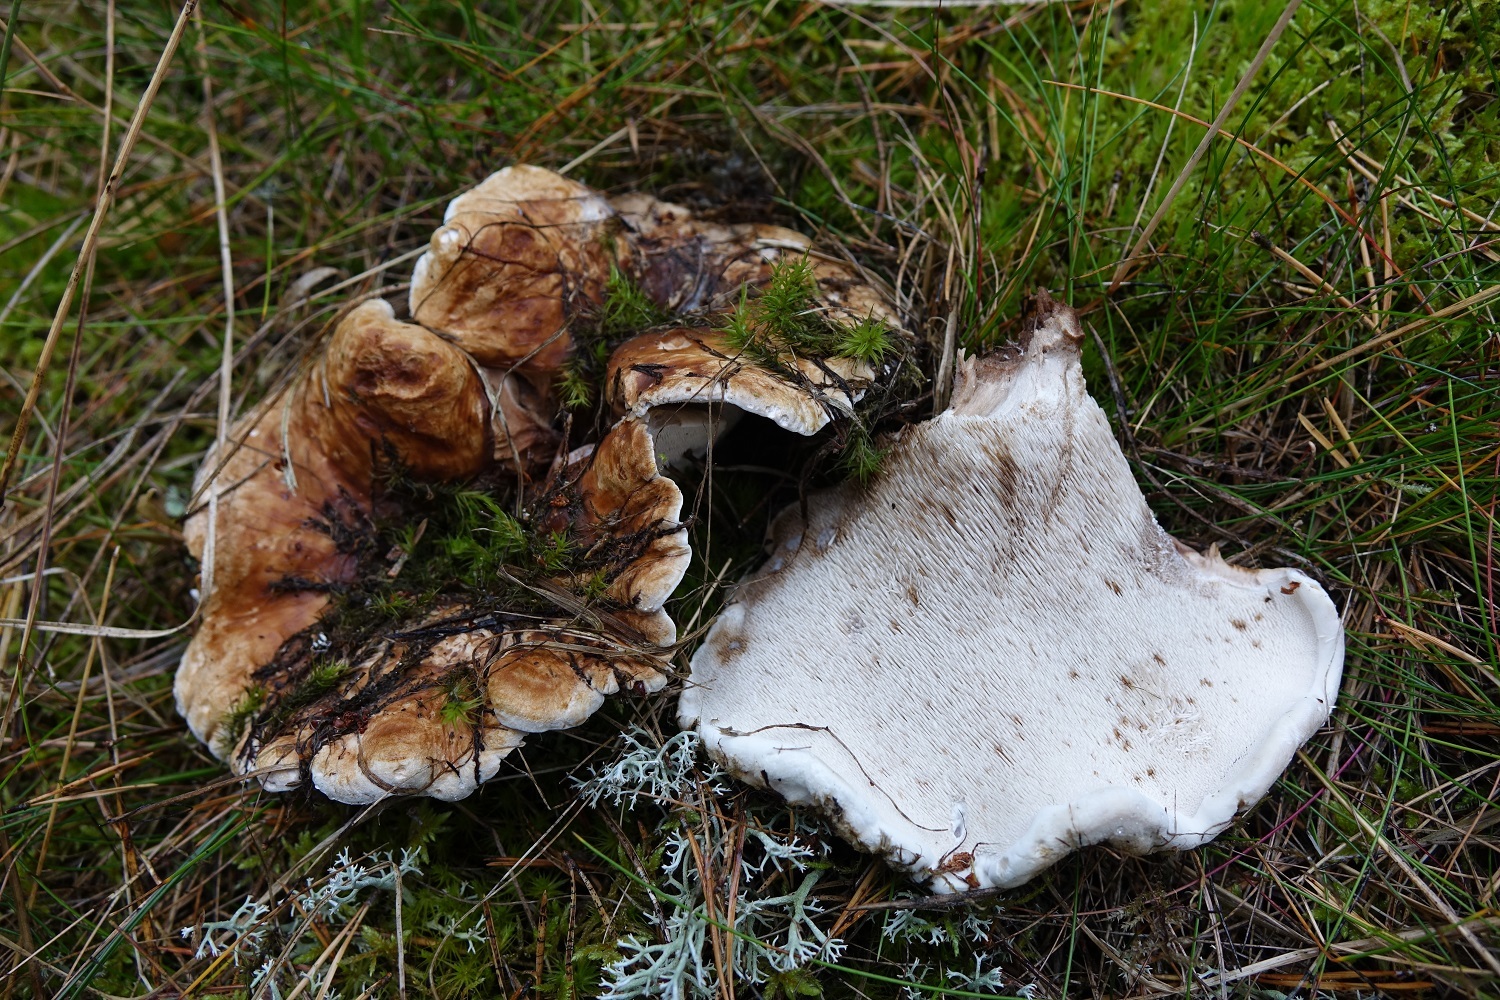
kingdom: Fungi
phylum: Basidiomycota
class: Agaricomycetes
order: Thelephorales
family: Thelephoraceae
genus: Phellodon
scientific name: Phellodon fuligineoalbus
